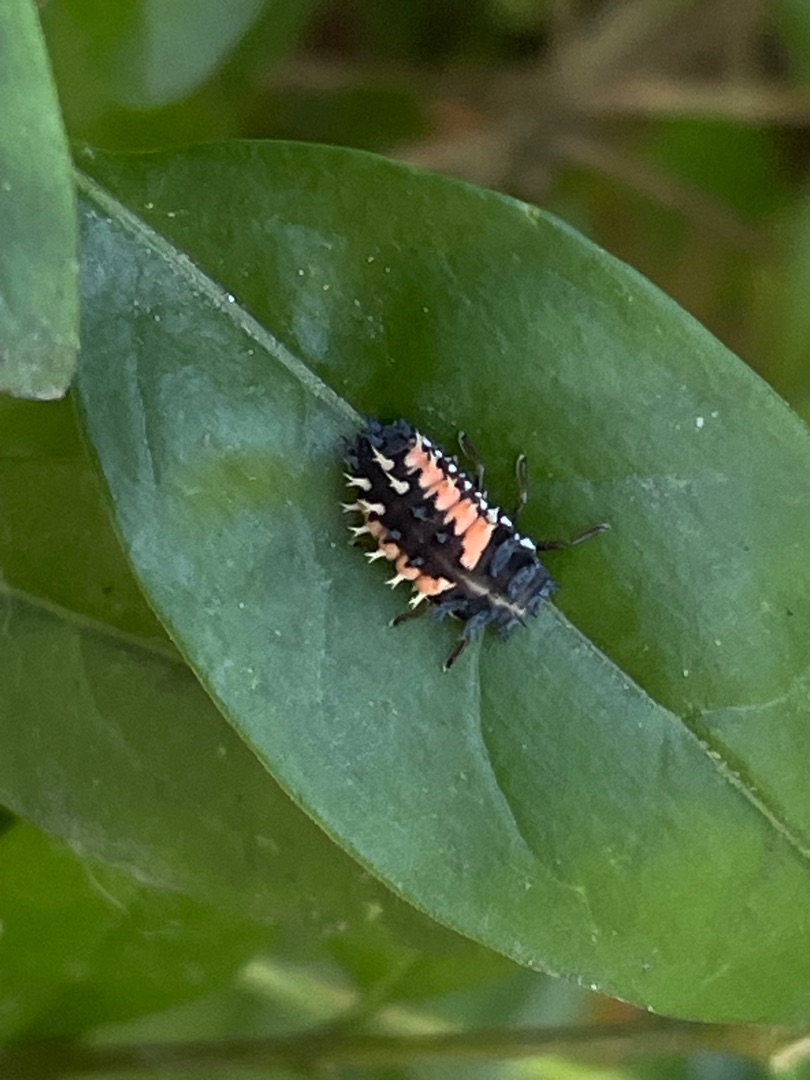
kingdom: Animalia
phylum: Arthropoda
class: Insecta
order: Coleoptera
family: Coccinellidae
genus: Harmonia
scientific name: Harmonia axyridis
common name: Harlekinmariehøne
